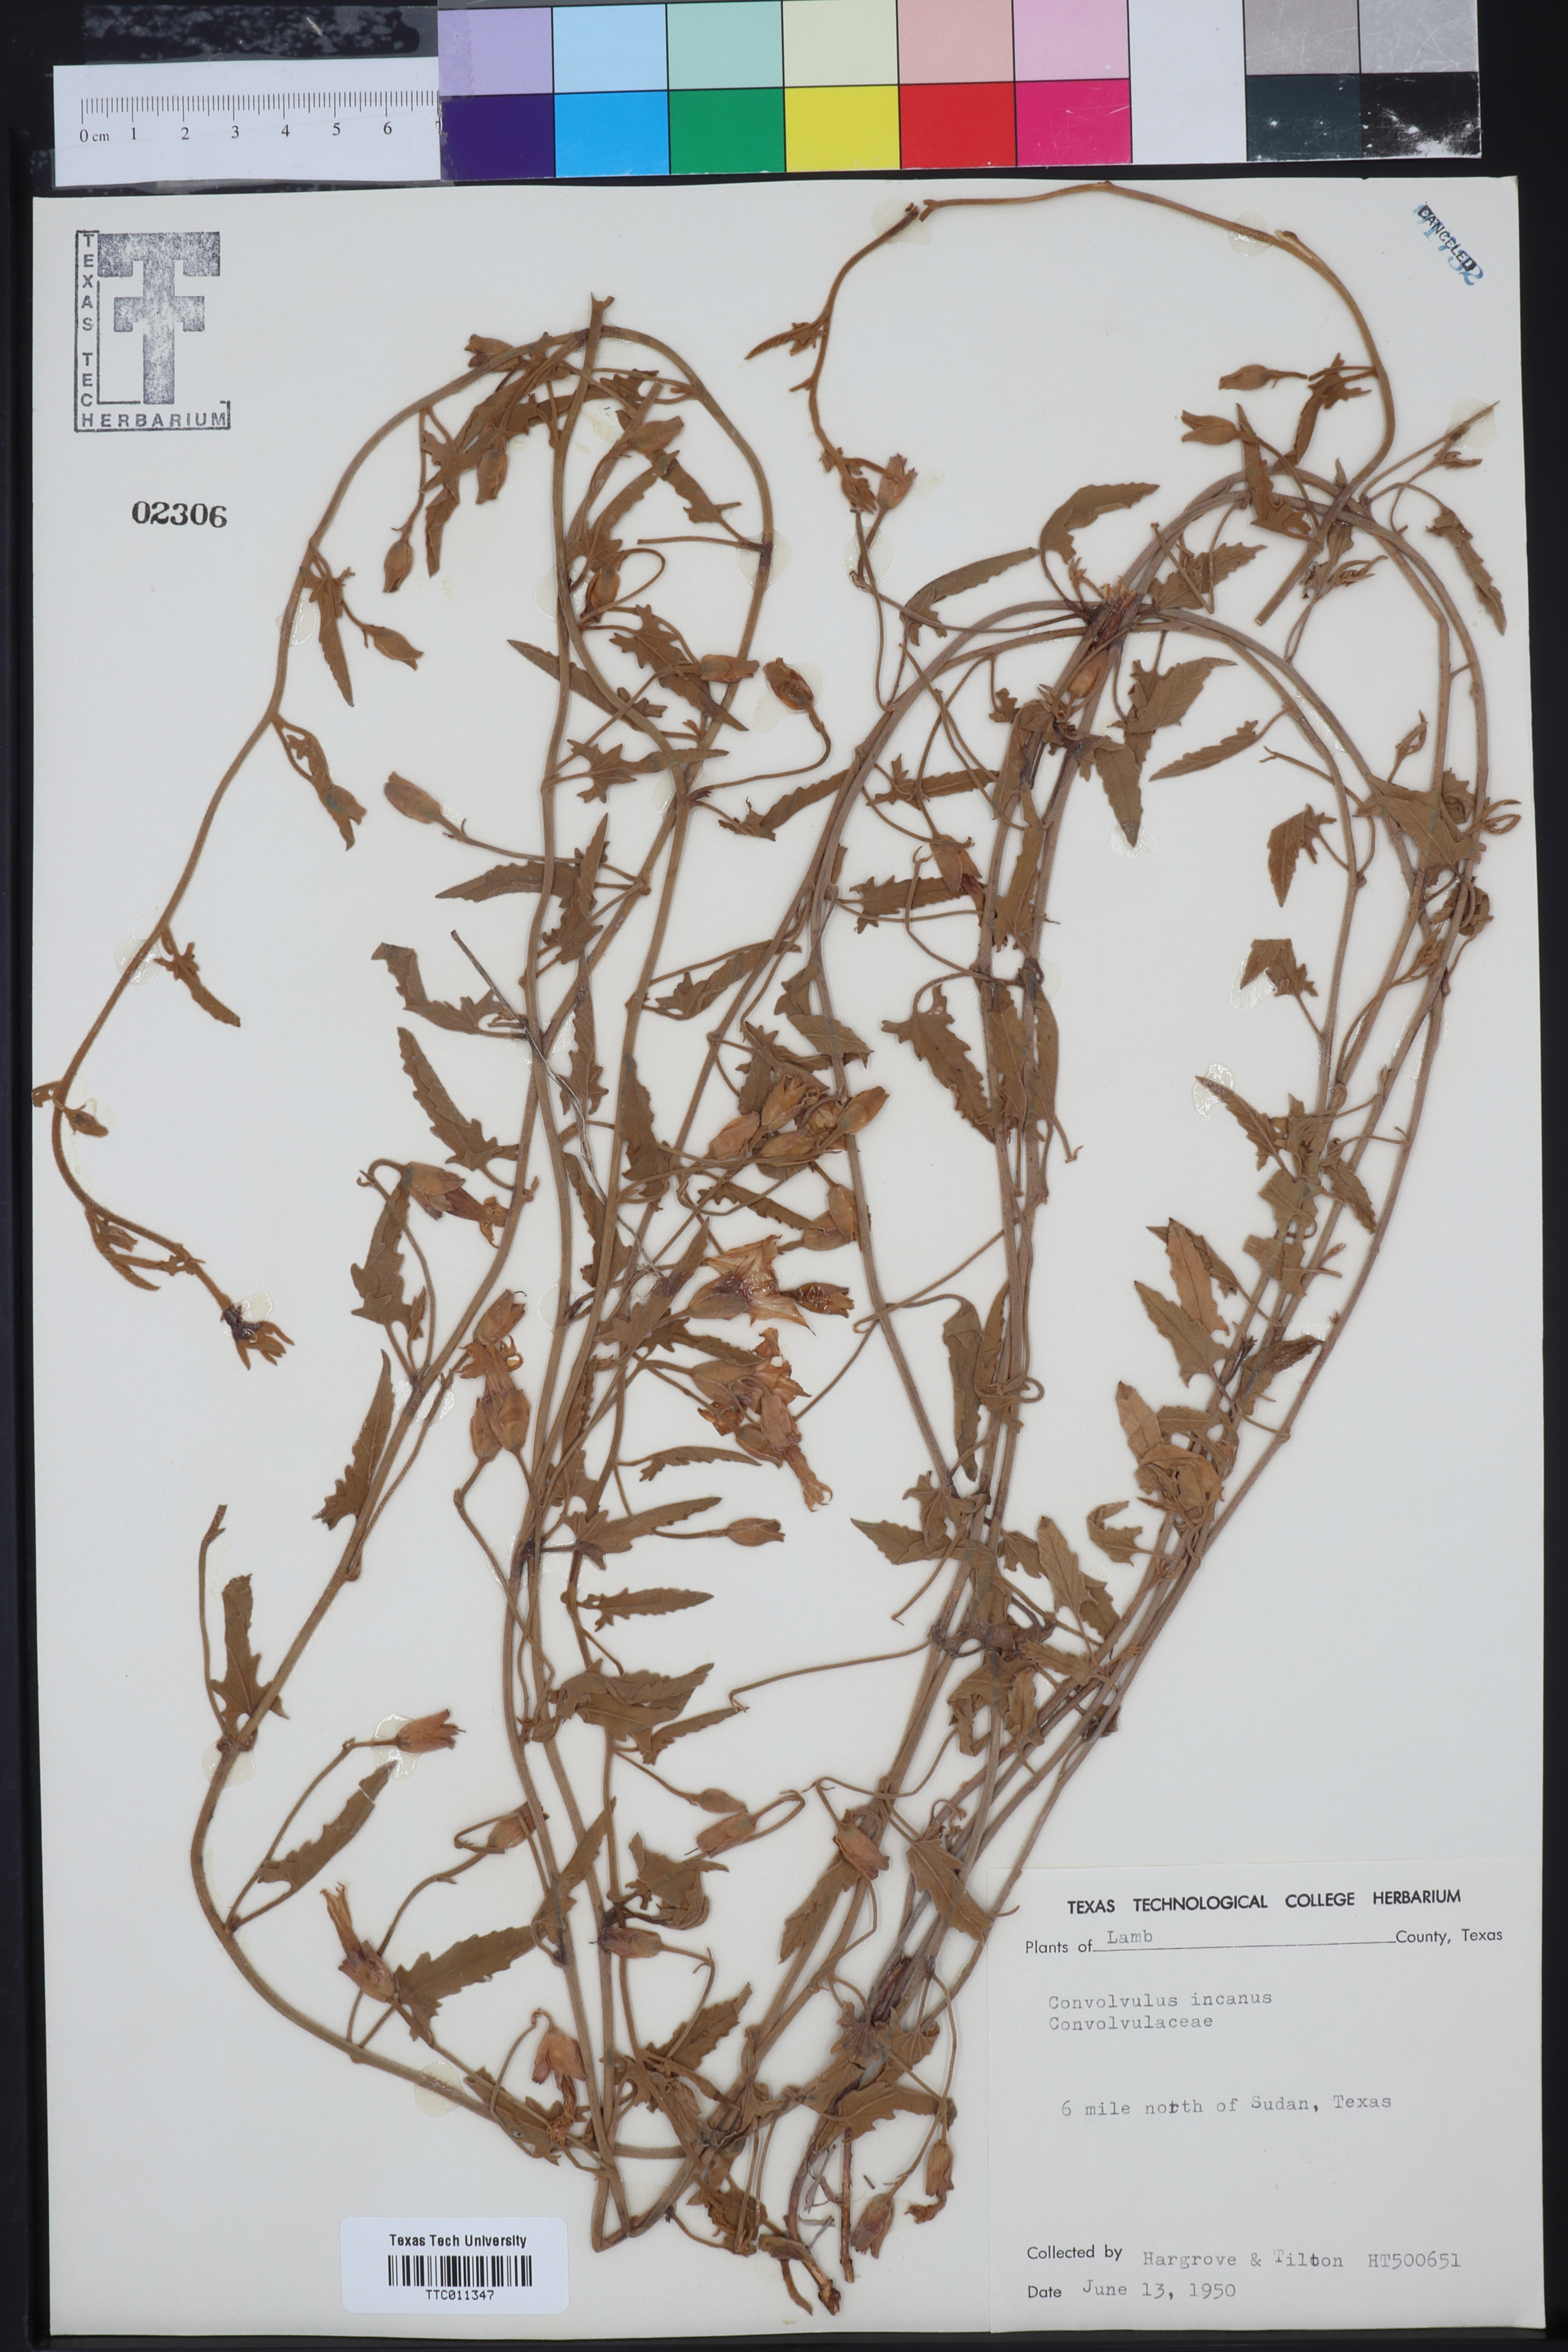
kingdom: Plantae
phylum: Tracheophyta
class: Magnoliopsida
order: Solanales
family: Convolvulaceae
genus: Convolvulus
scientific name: Convolvulus hermanniae
